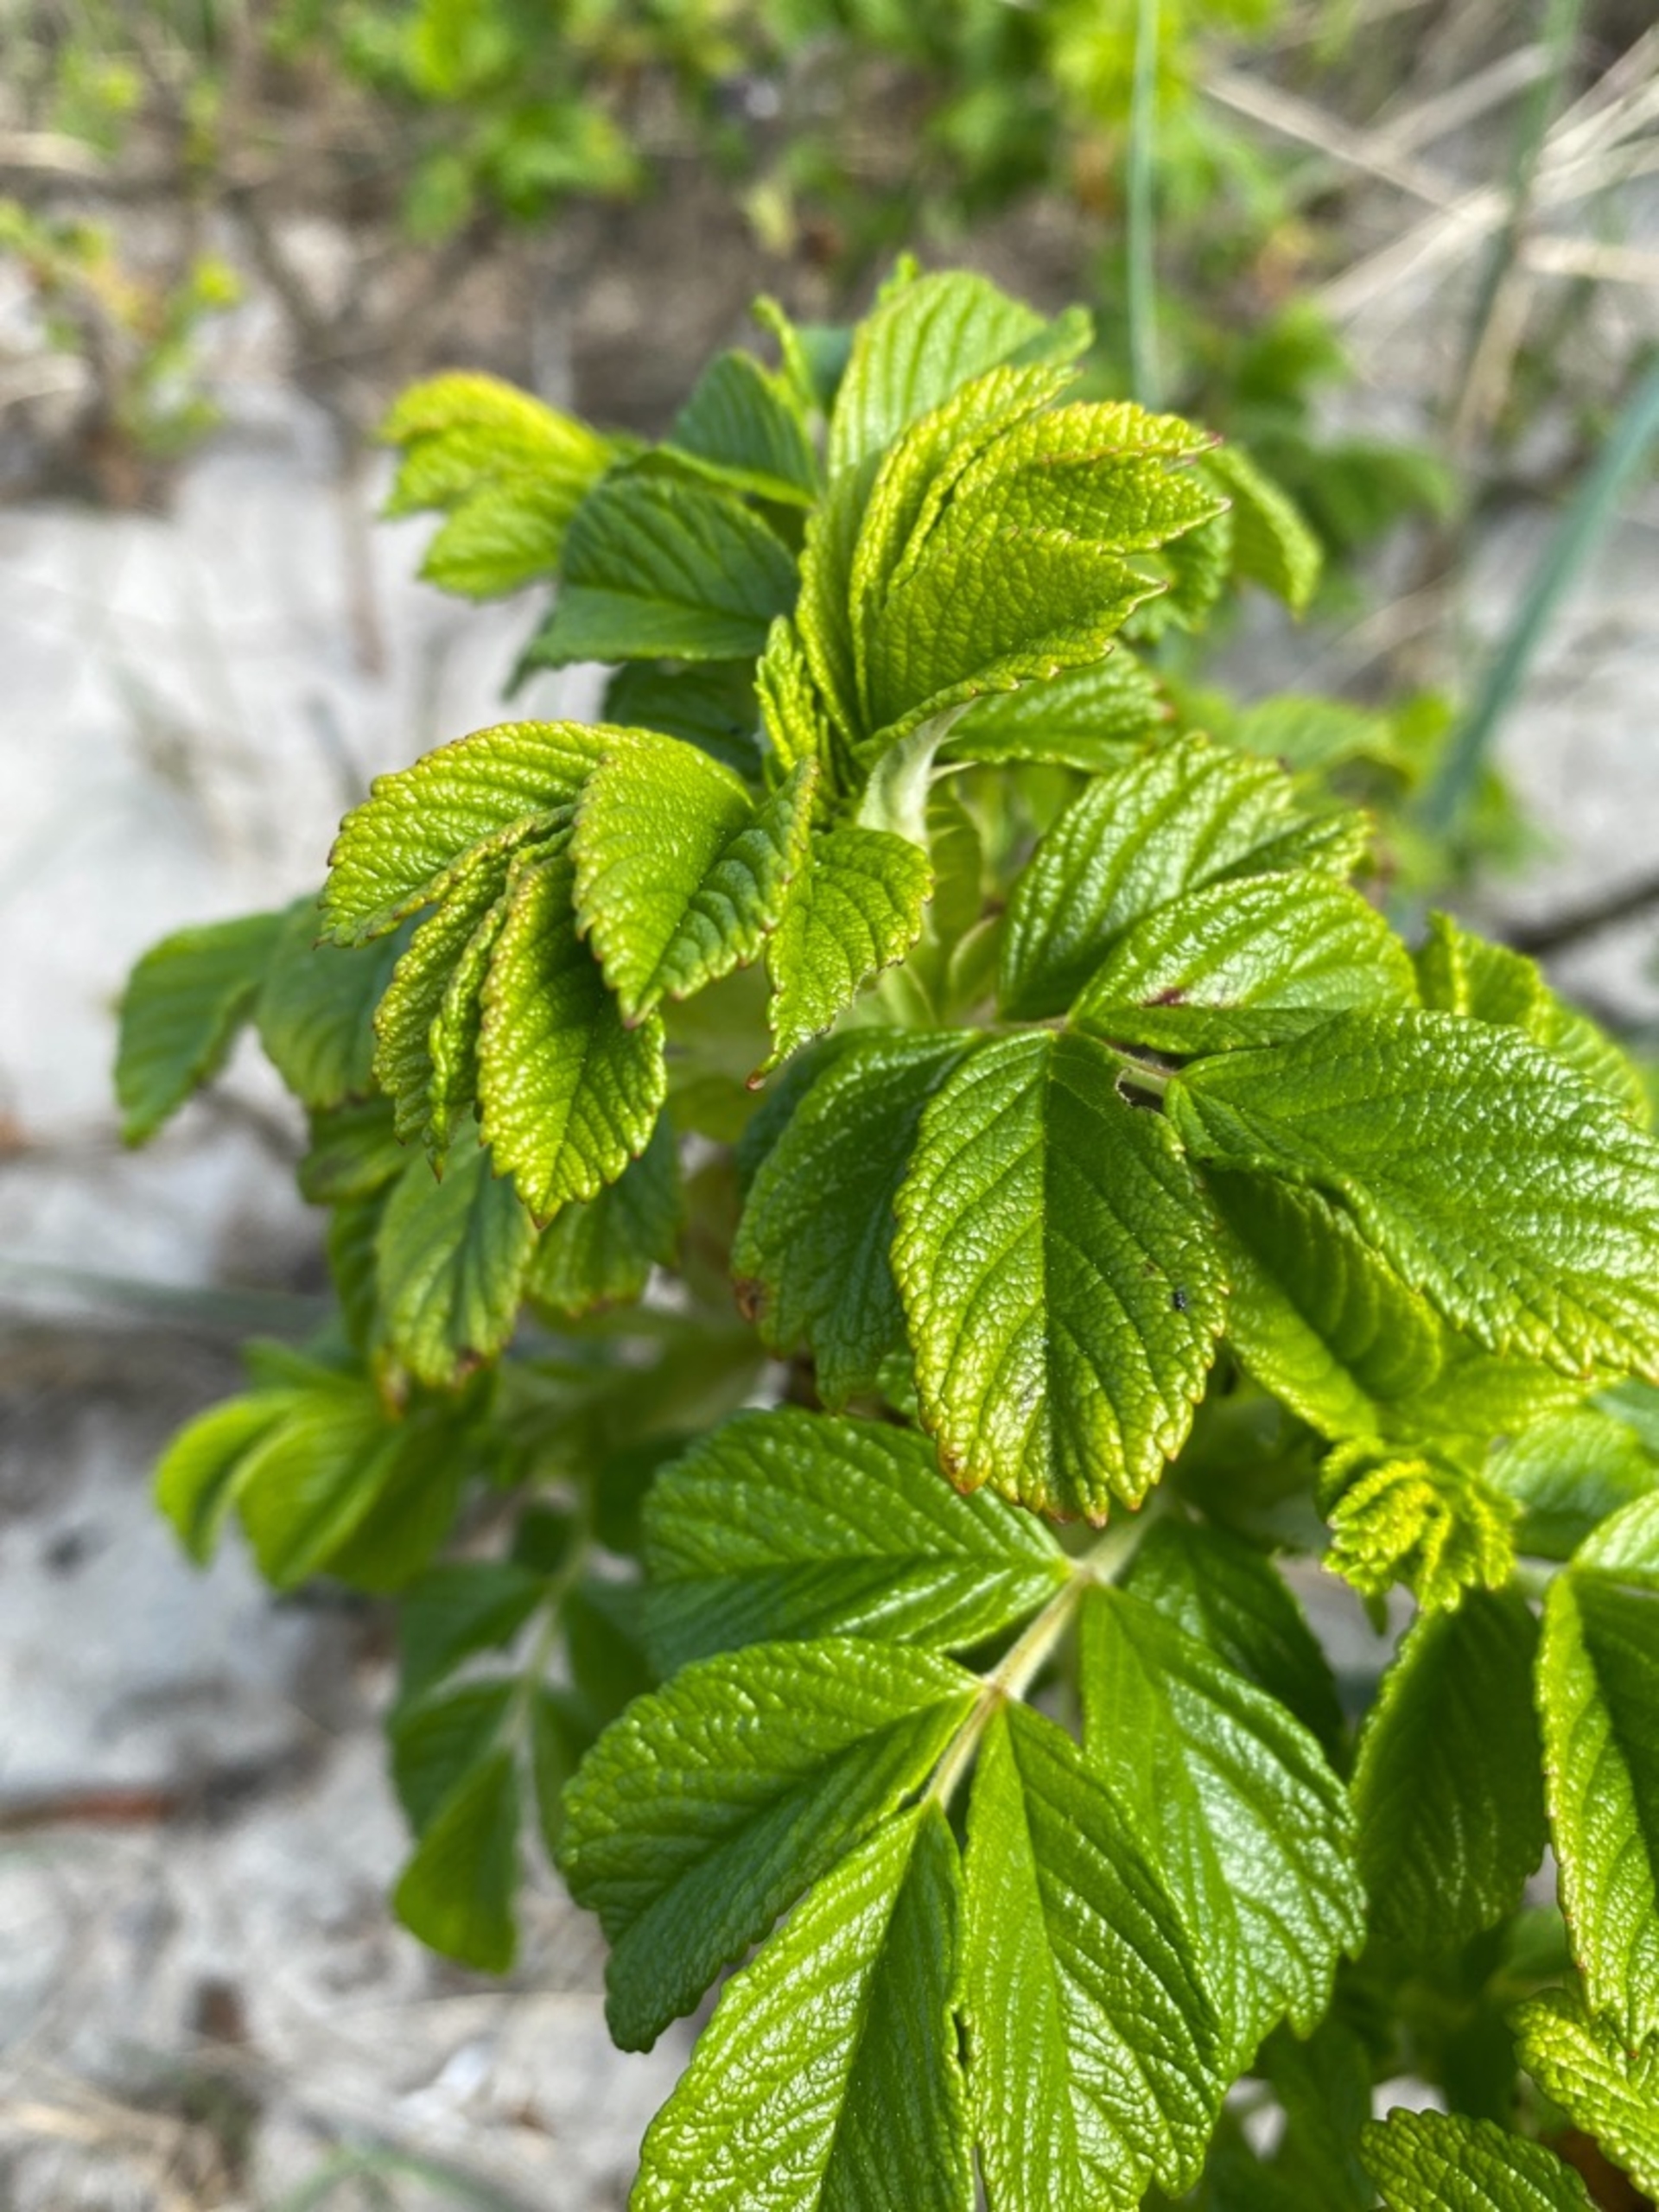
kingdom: Plantae
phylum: Tracheophyta
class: Magnoliopsida
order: Rosales
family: Rosaceae
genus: Rosa
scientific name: Rosa rugosa
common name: Rynket rose
